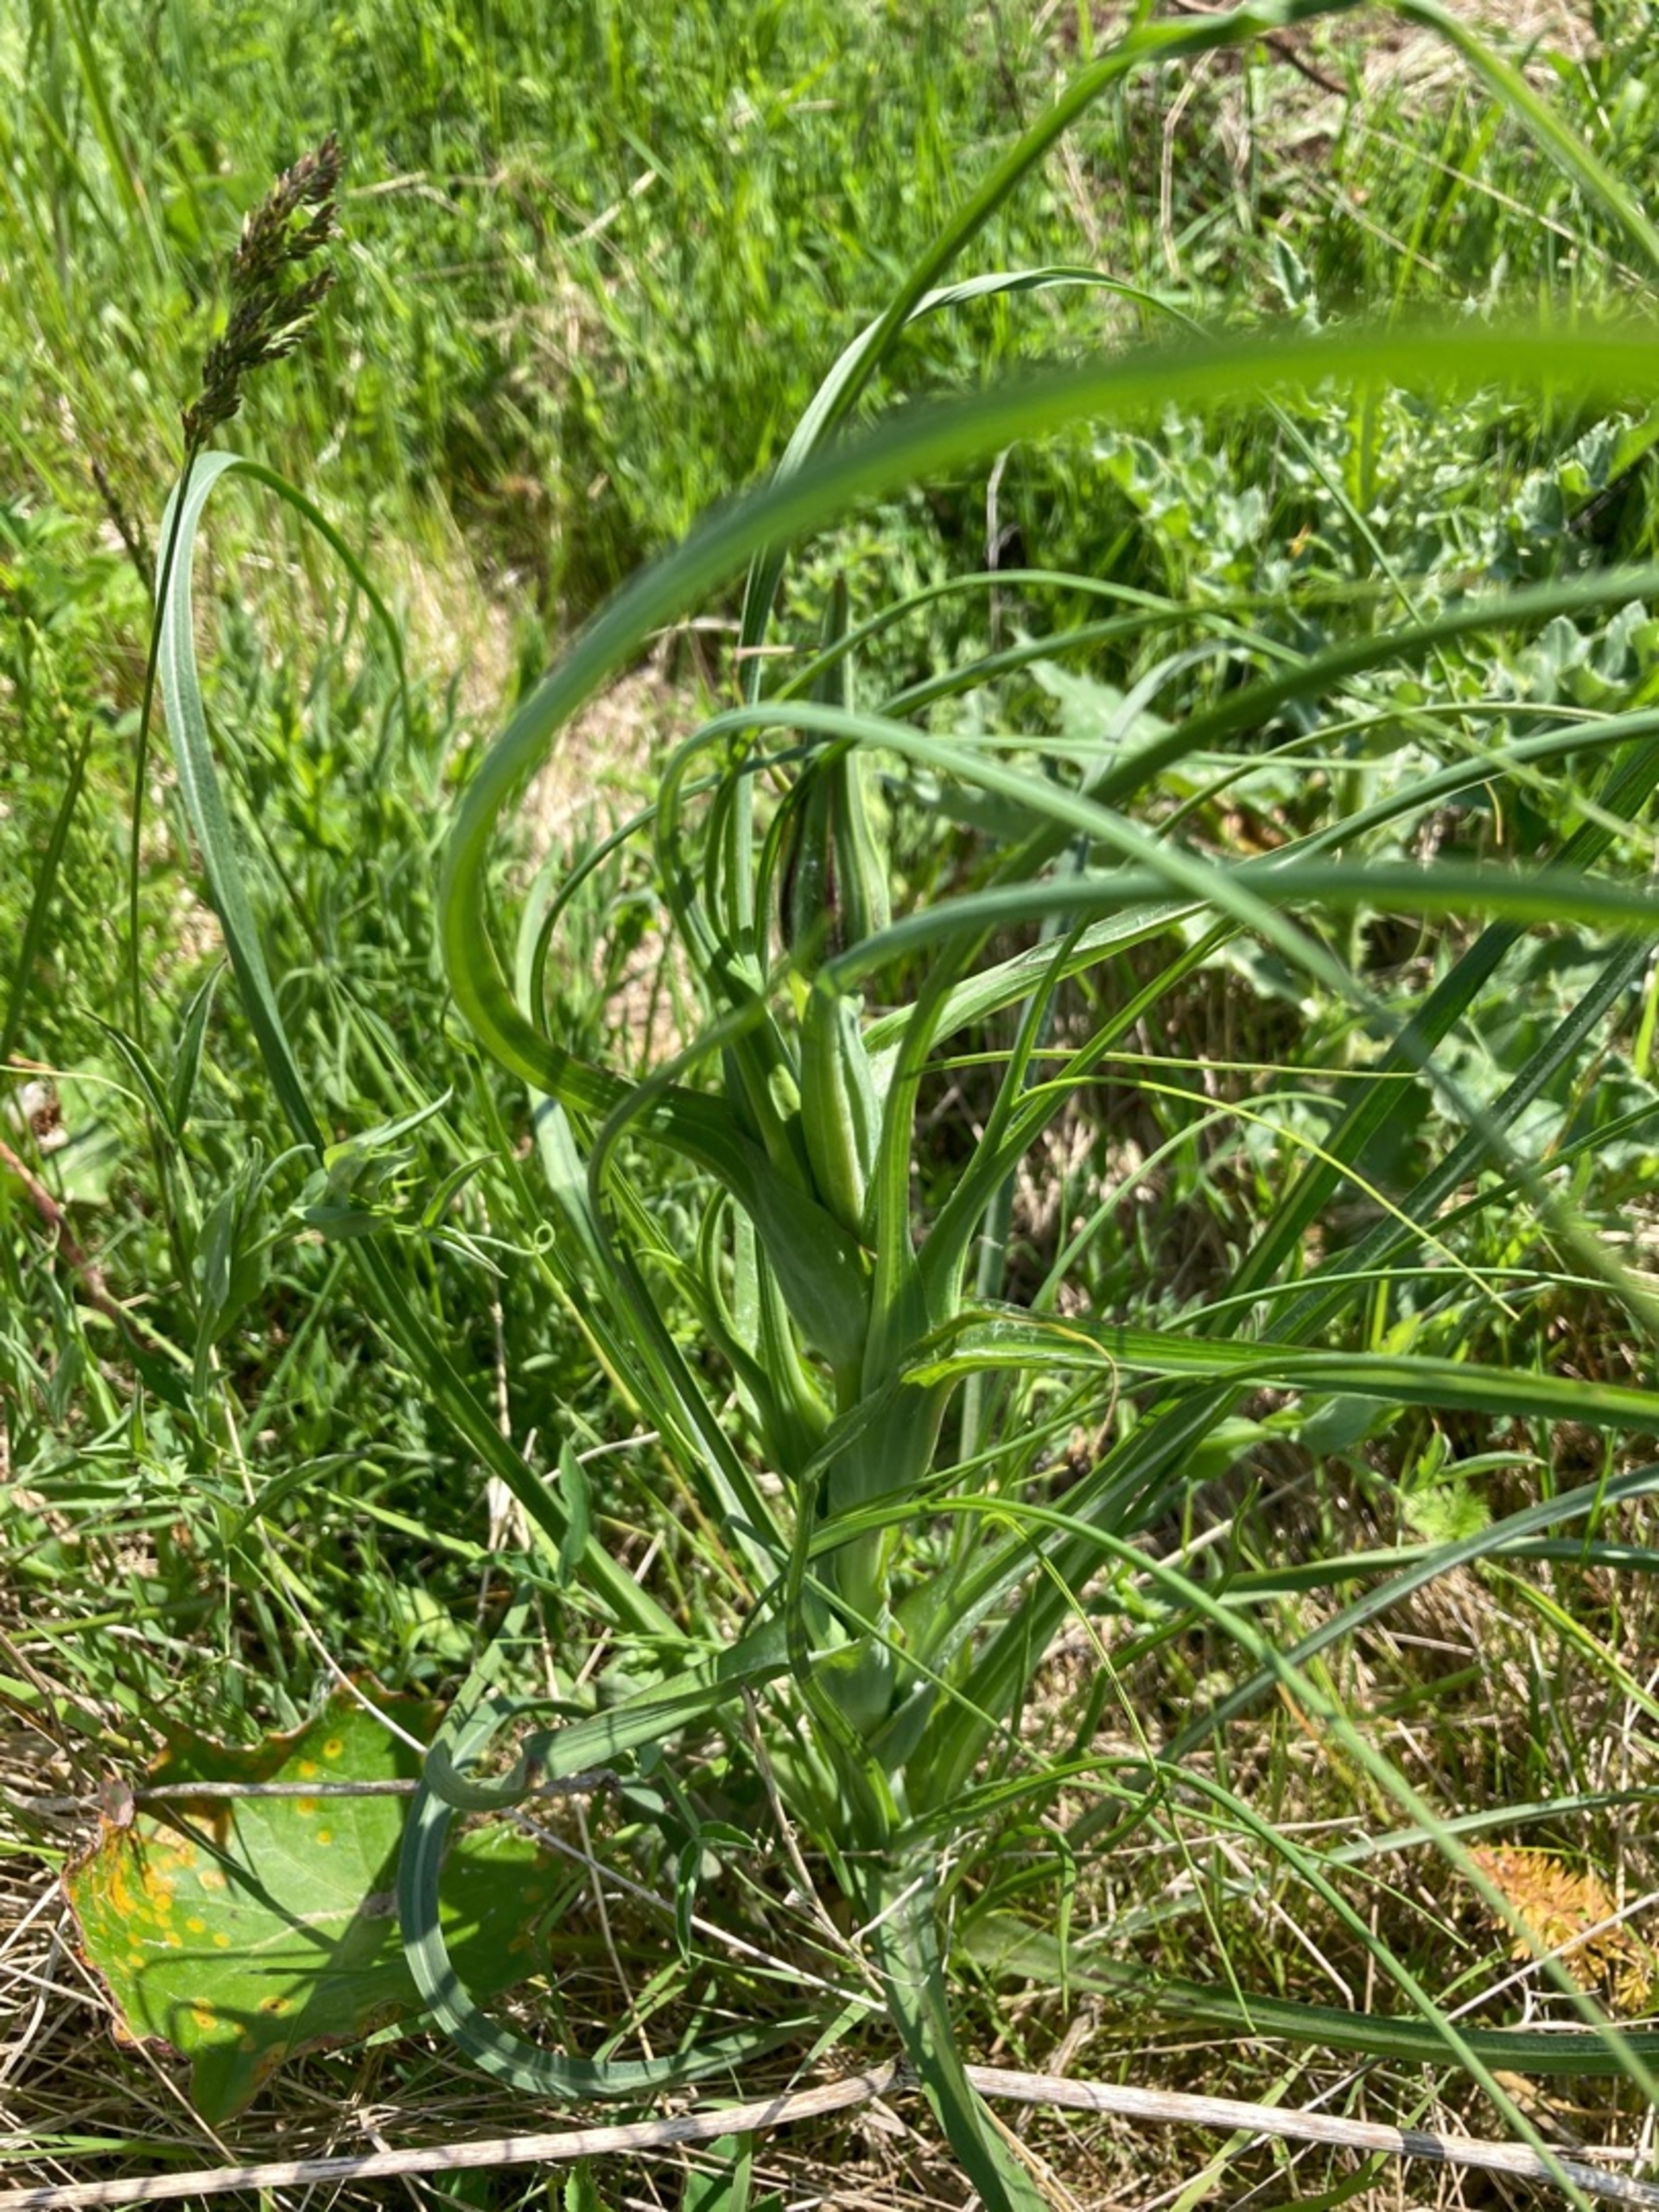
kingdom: Plantae
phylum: Tracheophyta
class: Magnoliopsida
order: Asterales
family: Asteraceae
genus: Tragopogon
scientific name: Tragopogon minor
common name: Småkronet gedeskæg
